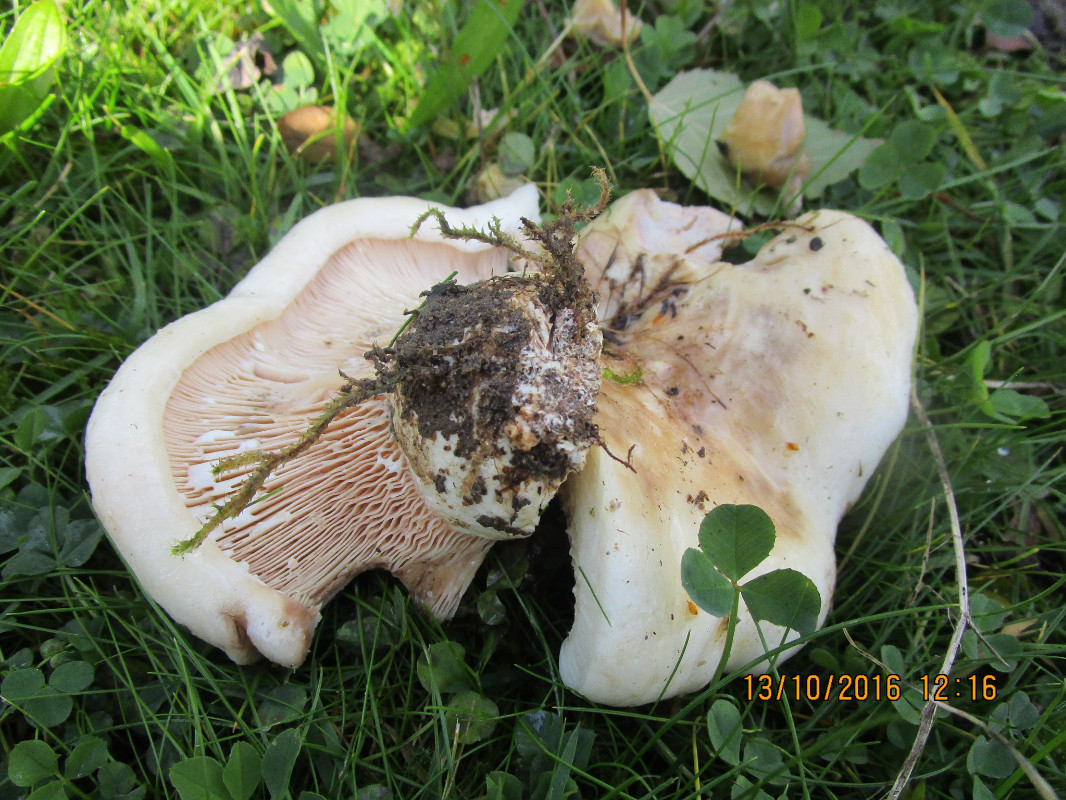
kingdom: Fungi
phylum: Basidiomycota
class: Agaricomycetes
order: Russulales
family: Russulaceae
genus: Lactarius
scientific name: Lactarius controversus
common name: rosabladet mælkehat
